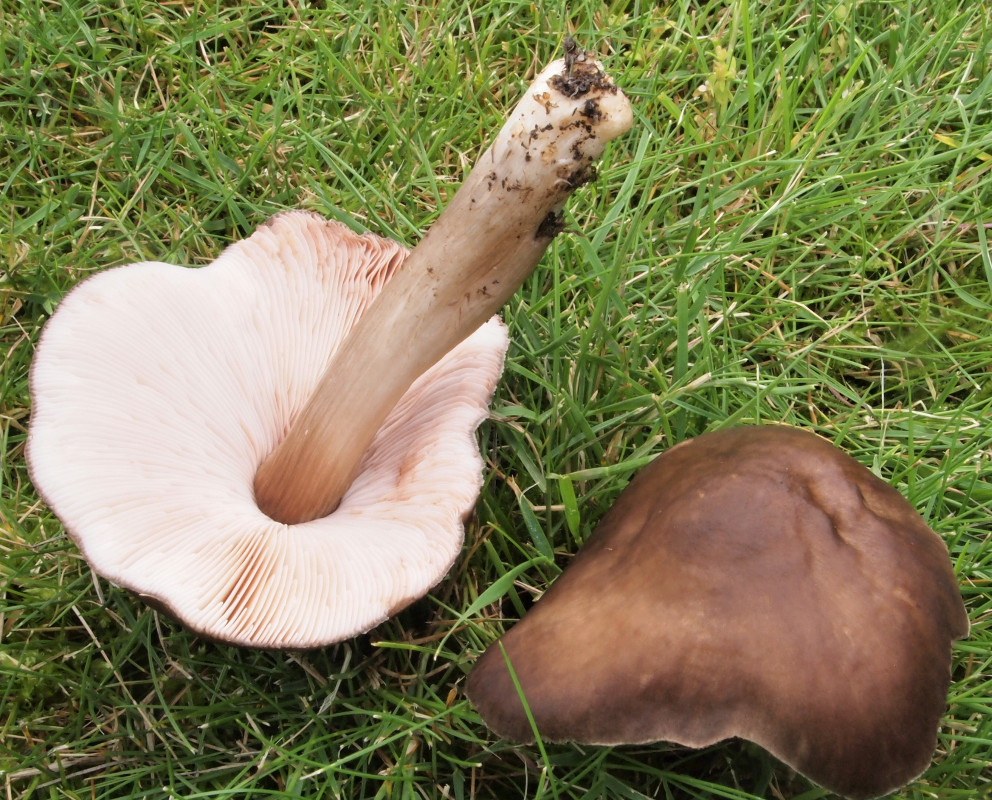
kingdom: Fungi
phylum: Basidiomycota
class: Agaricomycetes
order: Agaricales
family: Pluteaceae
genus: Pluteus
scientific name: Pluteus cervinus
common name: sodfarvet skærmhat
